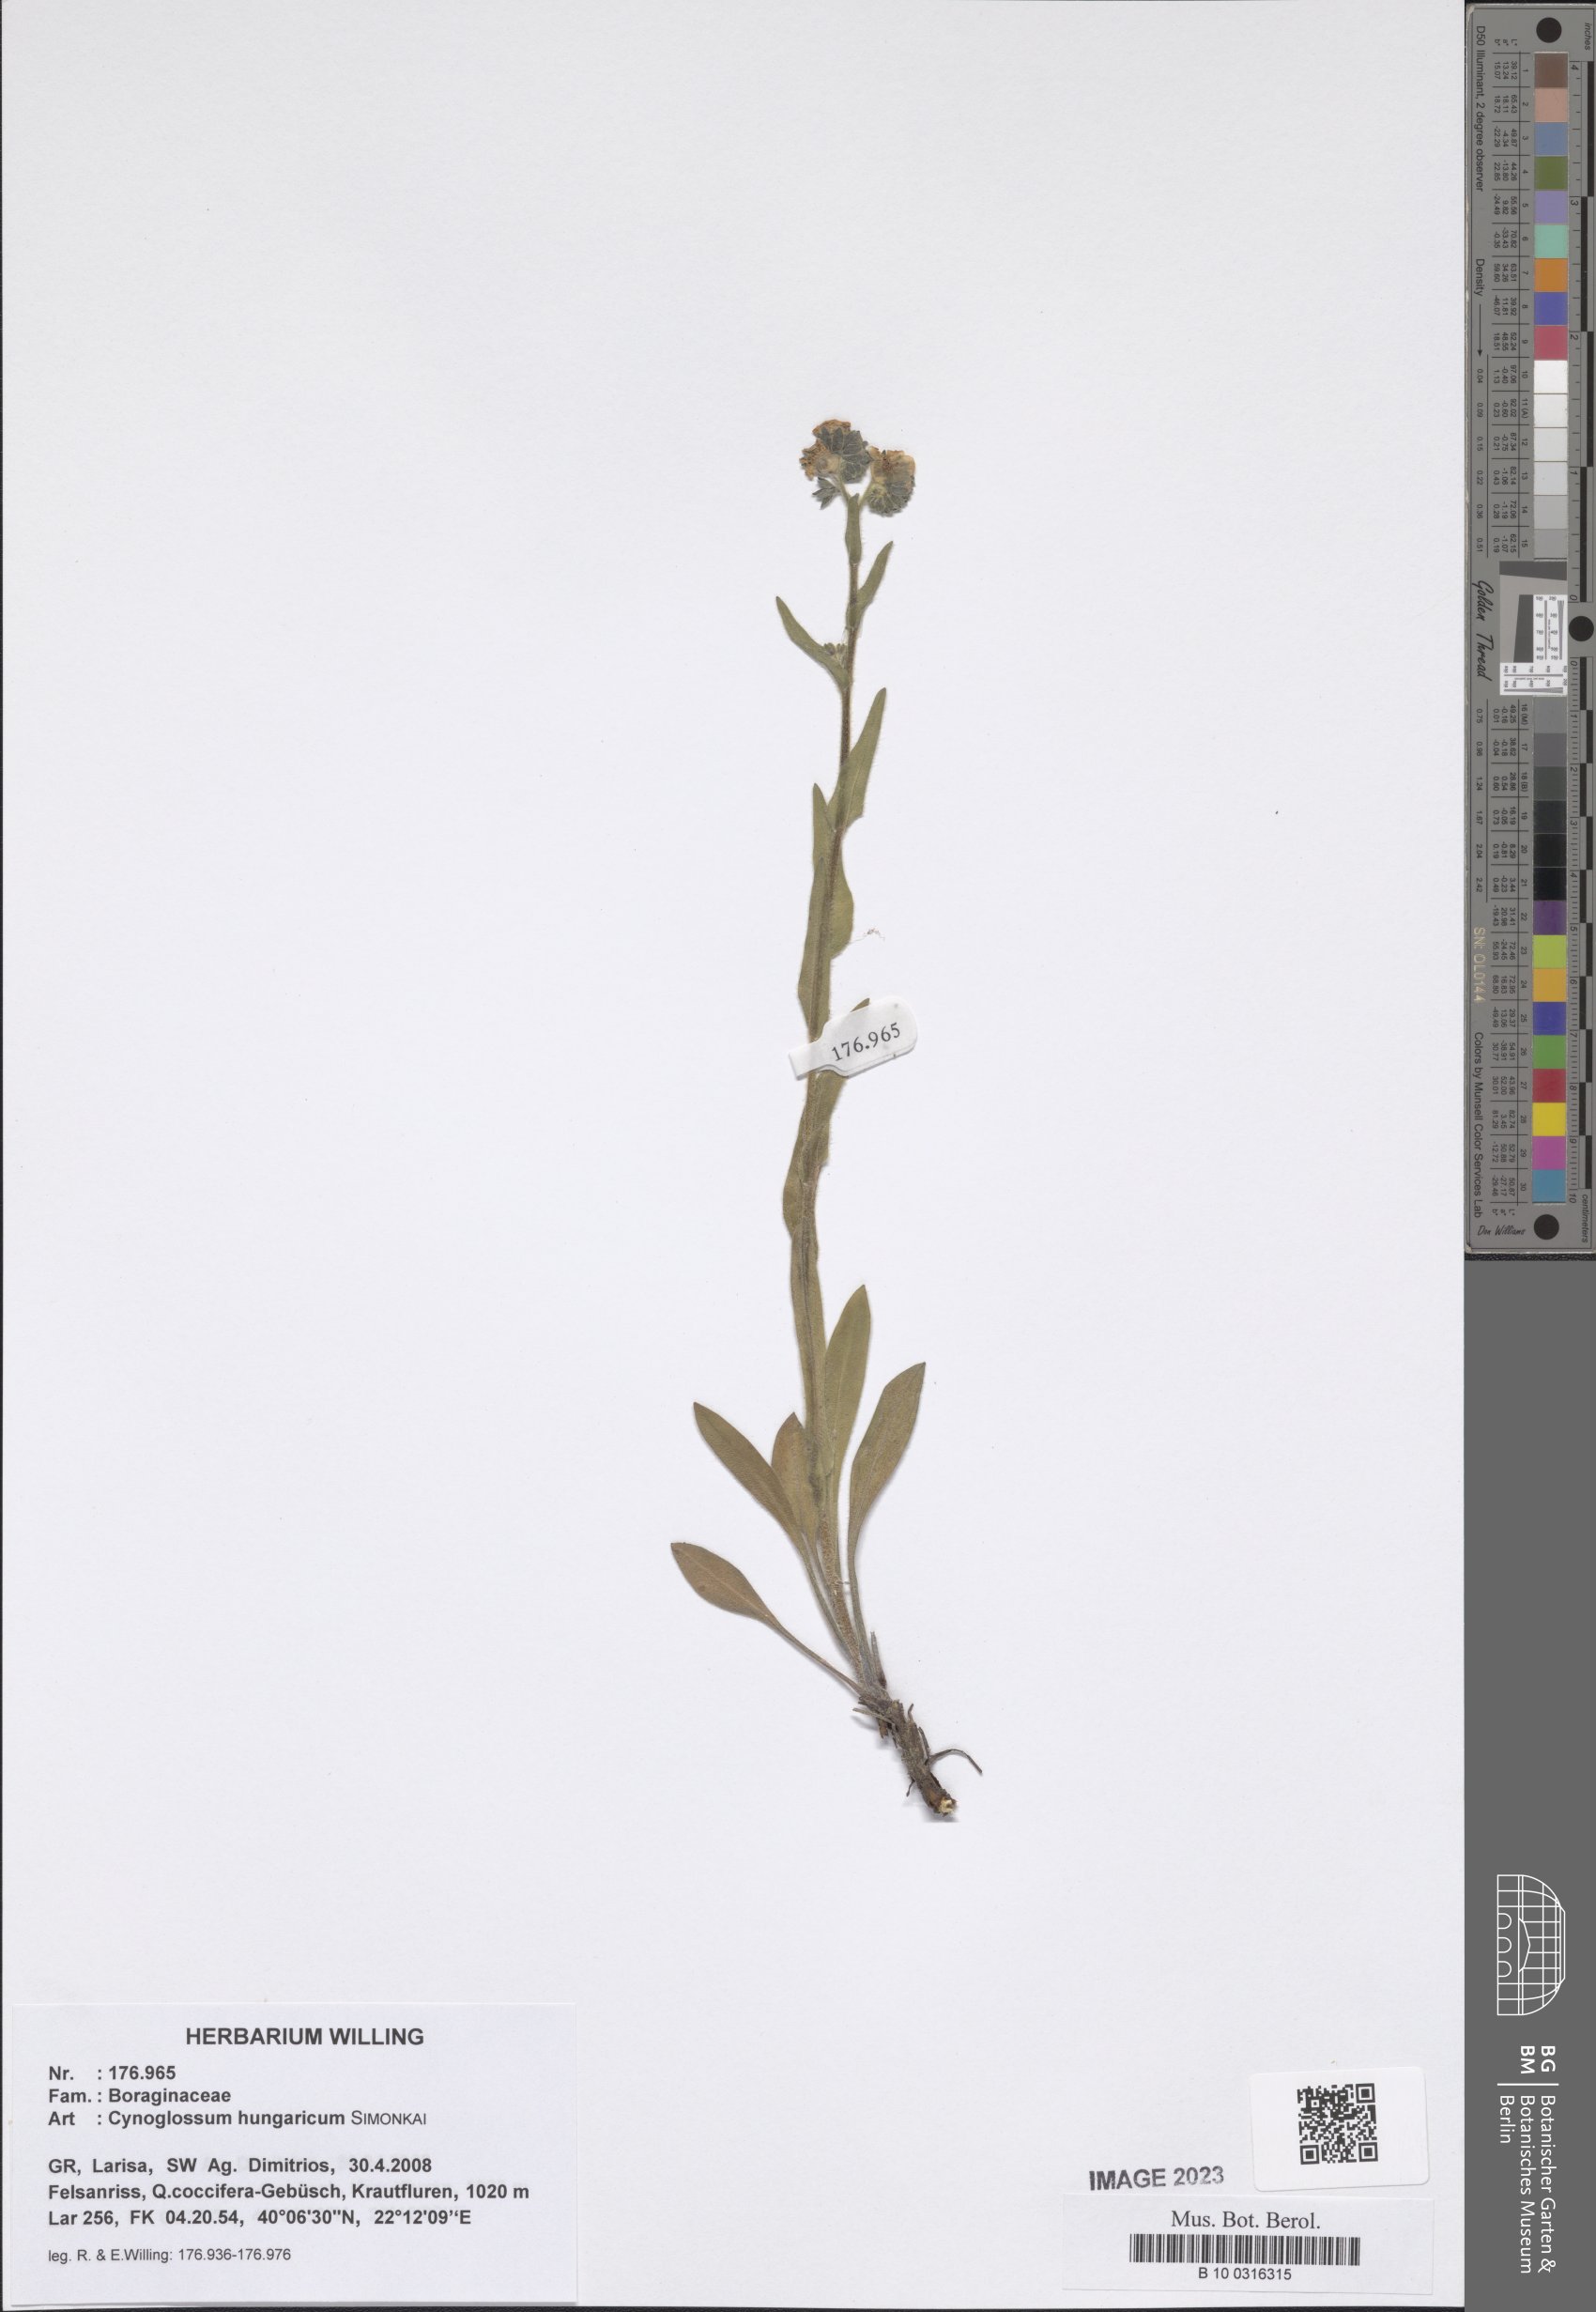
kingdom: Plantae
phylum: Tracheophyta
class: Magnoliopsida
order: Boraginales
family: Boraginaceae
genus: Cynoglossum
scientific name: Cynoglossum montanum
